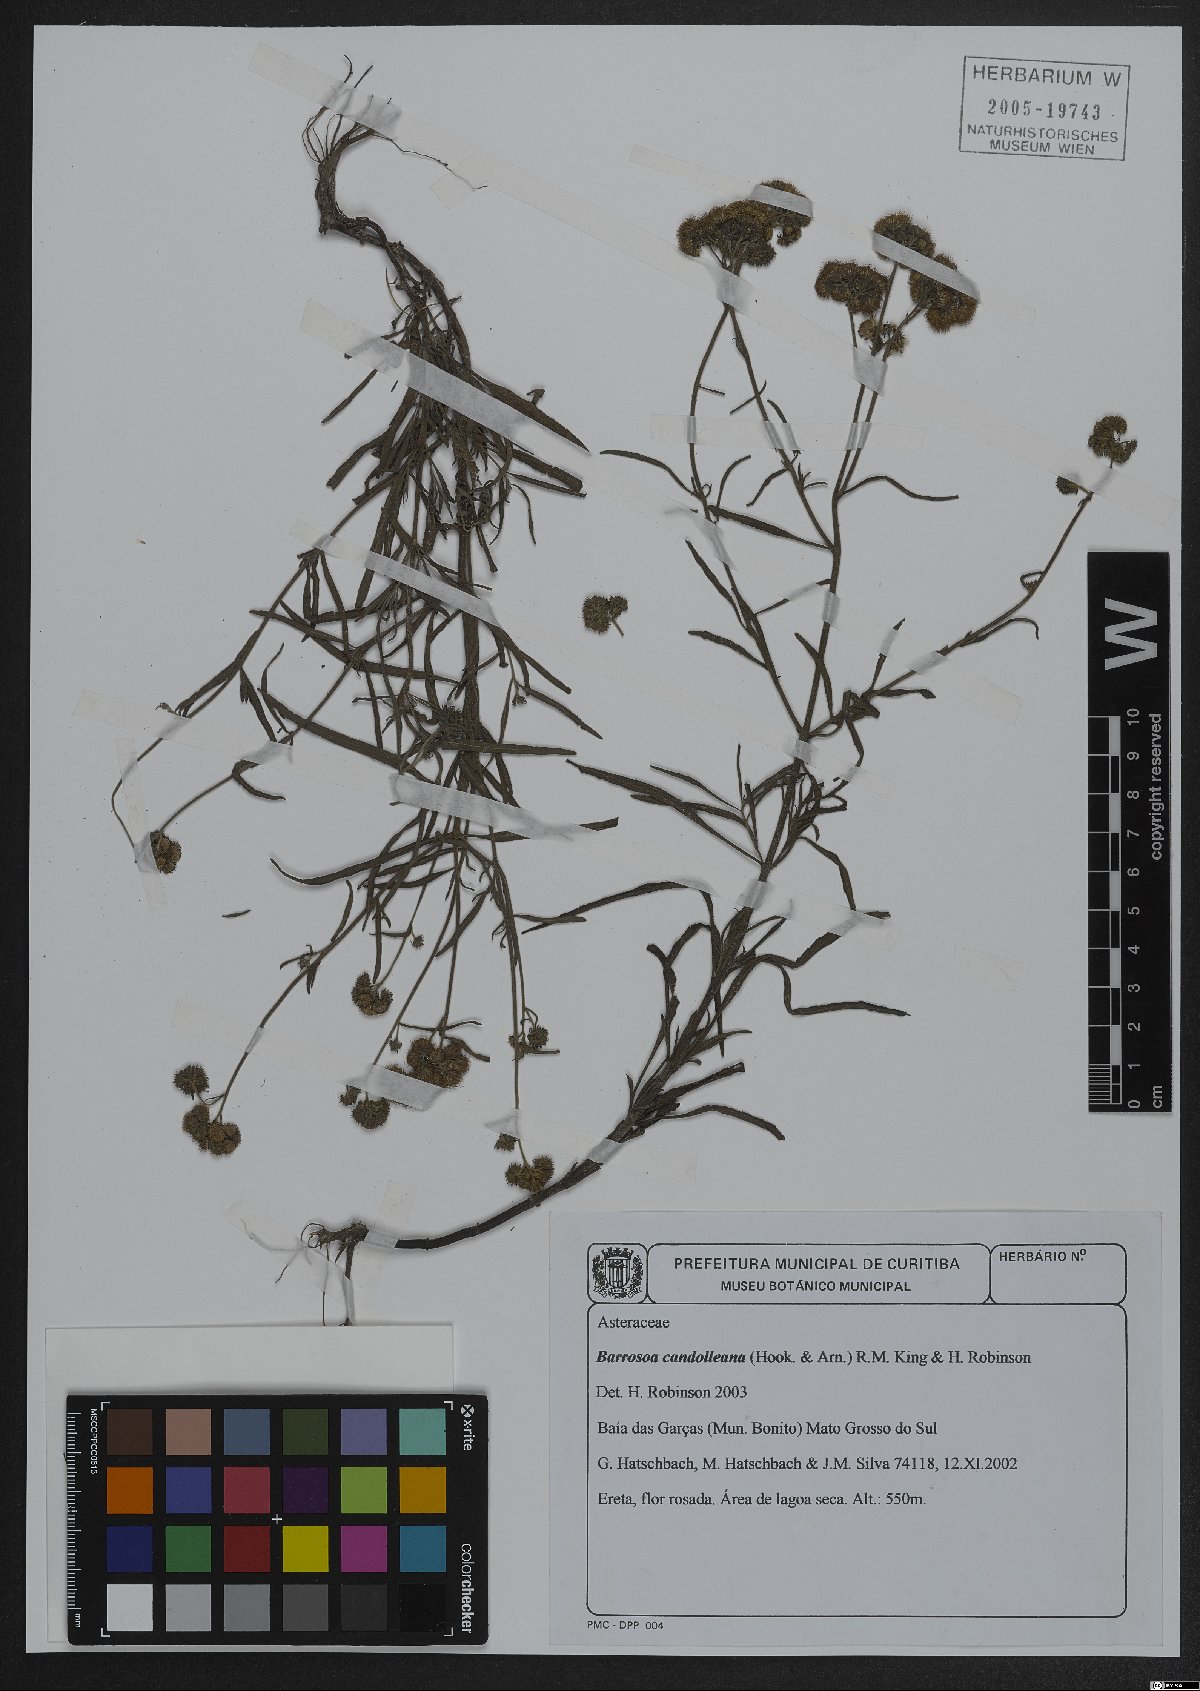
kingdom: Plantae
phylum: Tracheophyta
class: Magnoliopsida
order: Asterales
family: Asteraceae
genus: Barrosoa
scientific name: Barrosoa candolleana
